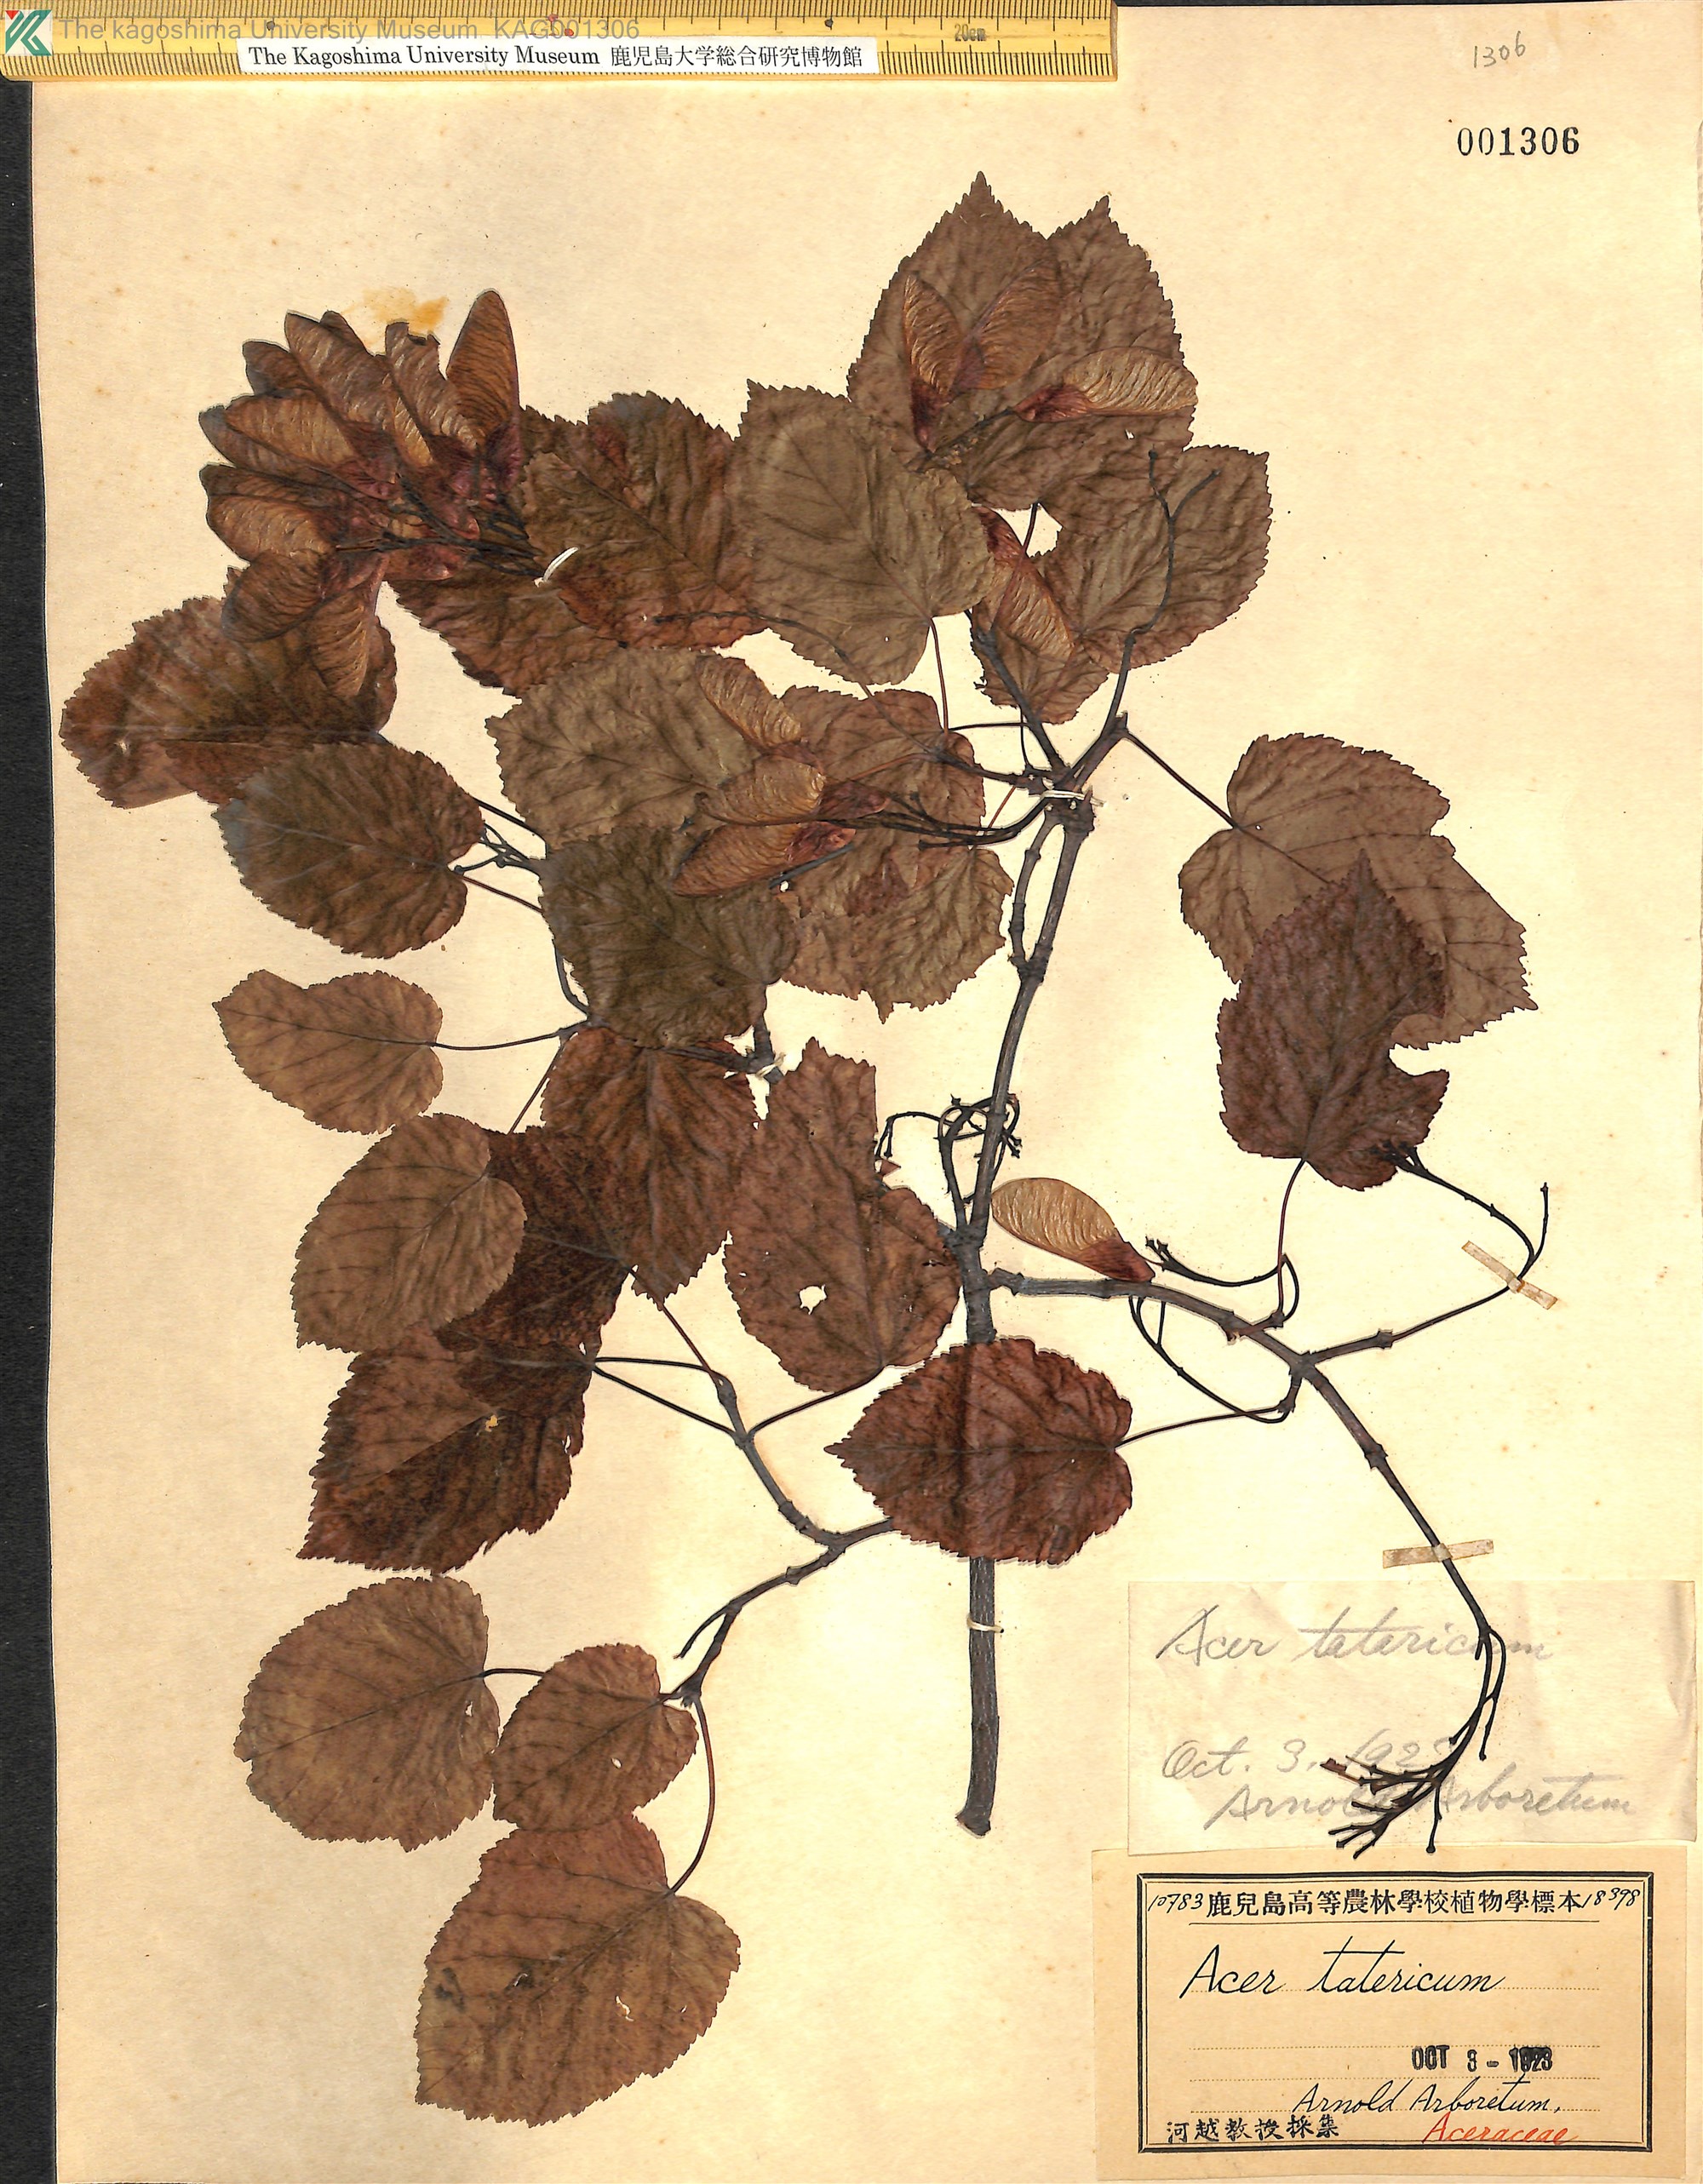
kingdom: Plantae
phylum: Tracheophyta
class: Magnoliopsida
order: Sapindales
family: Sapindaceae
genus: Acer
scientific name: Acer tataricum
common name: Tartar maple
